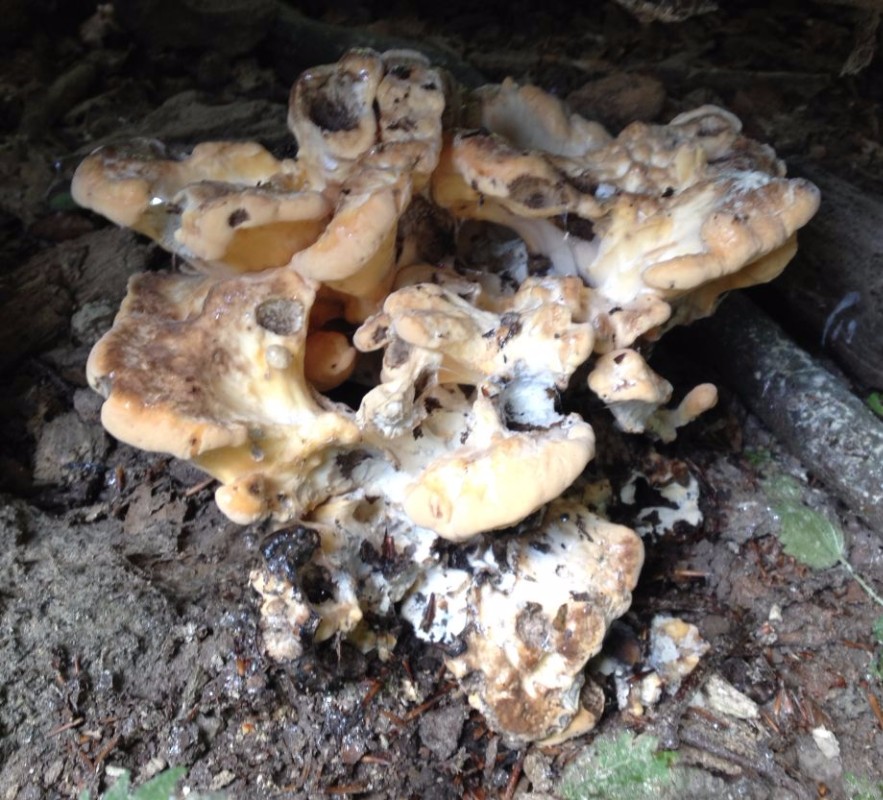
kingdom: Fungi
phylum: Basidiomycota
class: Agaricomycetes
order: Polyporales
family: Meripilaceae
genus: Meripilus
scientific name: Meripilus giganteus
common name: kæmpeporesvamp
